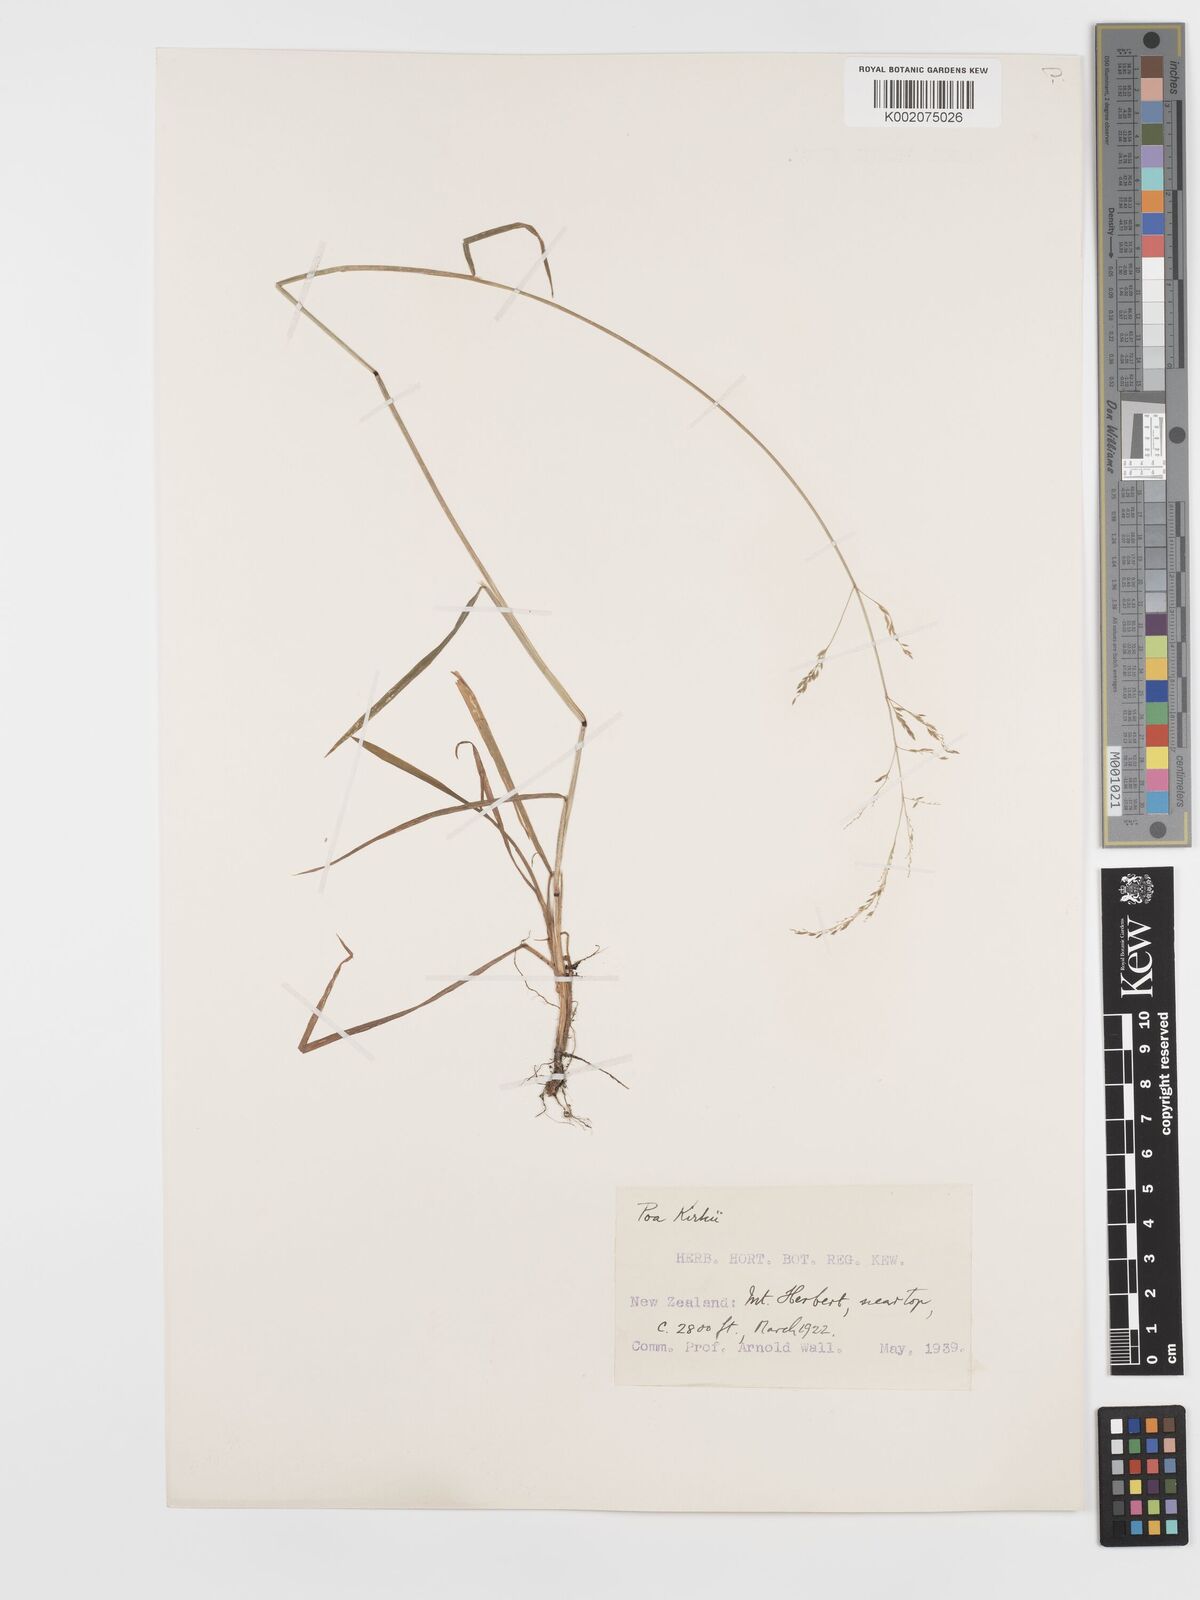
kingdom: Plantae
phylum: Tracheophyta
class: Liliopsida
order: Poales
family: Poaceae
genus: Poa
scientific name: Poa kirkii
